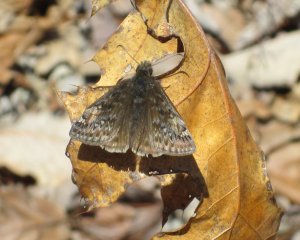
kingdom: Animalia
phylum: Arthropoda
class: Insecta
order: Lepidoptera
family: Hesperiidae
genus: Gesta
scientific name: Gesta
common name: Juvenal's Duskywing
